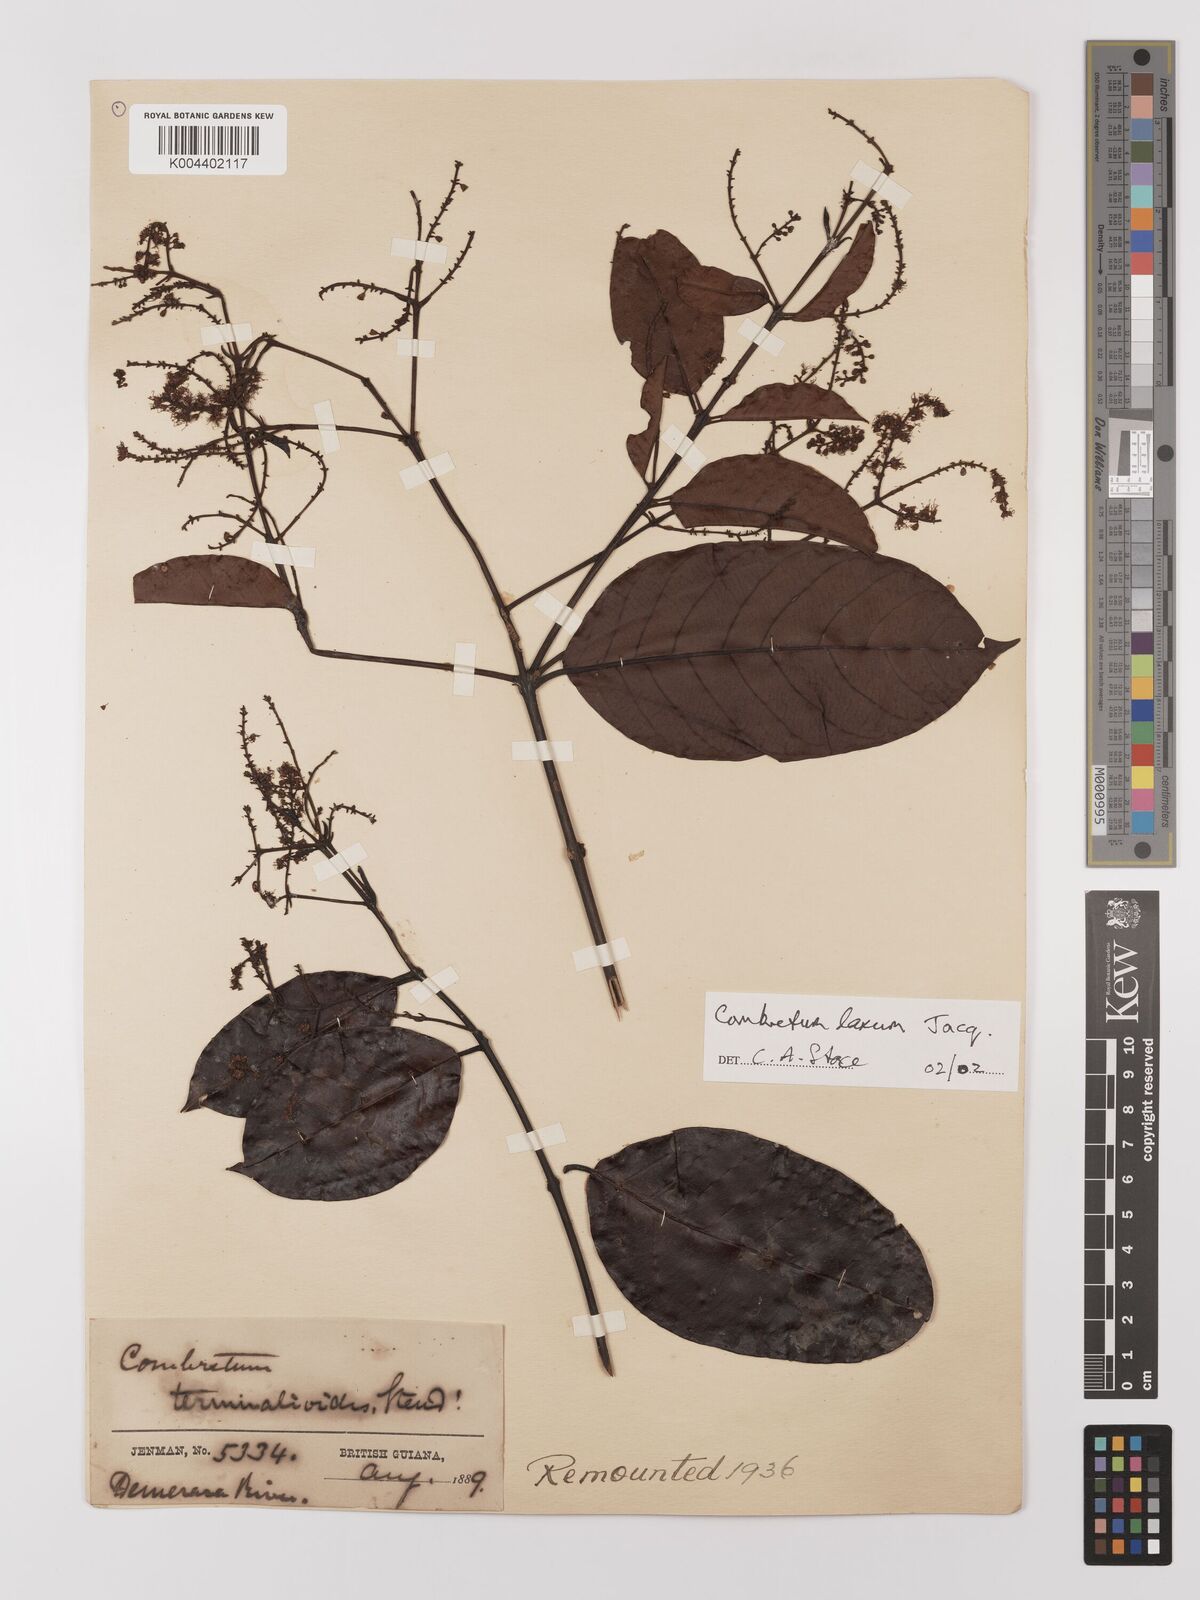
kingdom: Plantae
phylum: Tracheophyta
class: Magnoliopsida
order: Myrtales
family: Combretaceae
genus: Combretum
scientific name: Combretum
